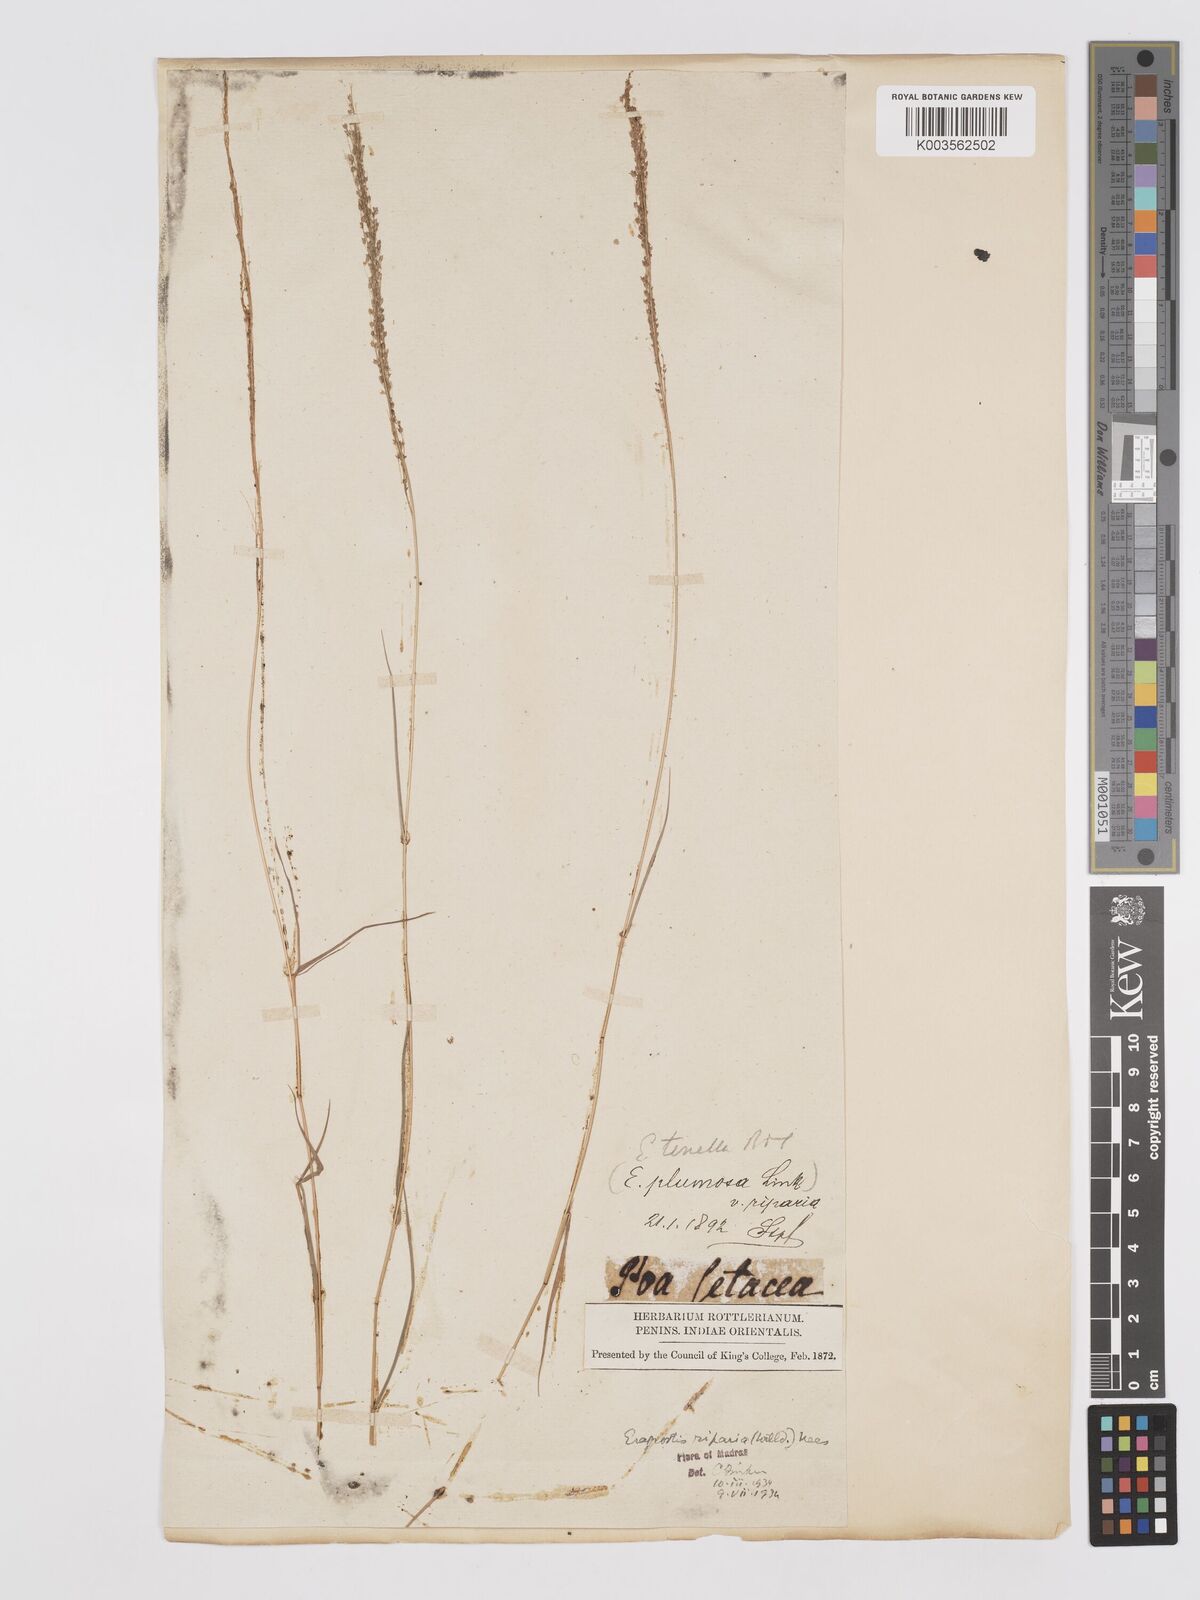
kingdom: Plantae
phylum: Tracheophyta
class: Liliopsida
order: Poales
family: Poaceae
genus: Eragrostis
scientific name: Eragrostis tenella
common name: Japanese lovegrass
